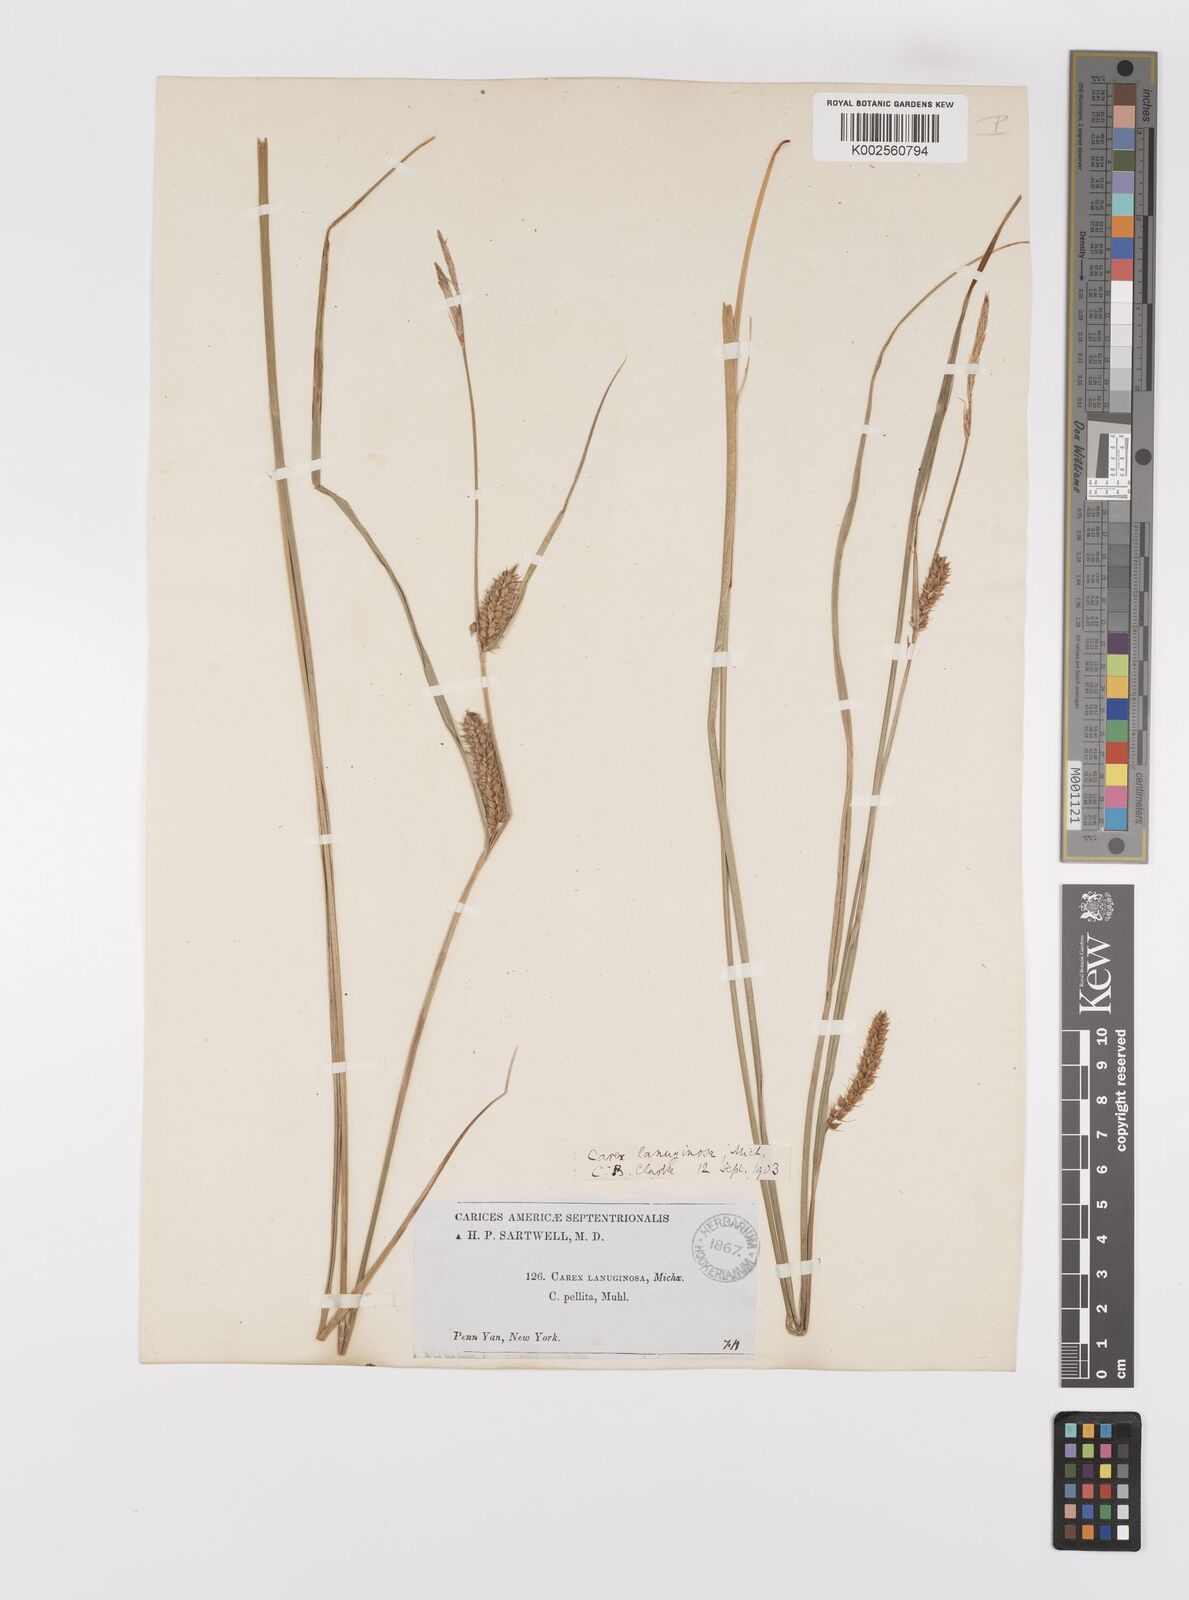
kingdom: Plantae
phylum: Tracheophyta
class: Liliopsida
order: Poales
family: Cyperaceae
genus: Carex
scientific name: Carex lasiocarpa
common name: Slender sedge
